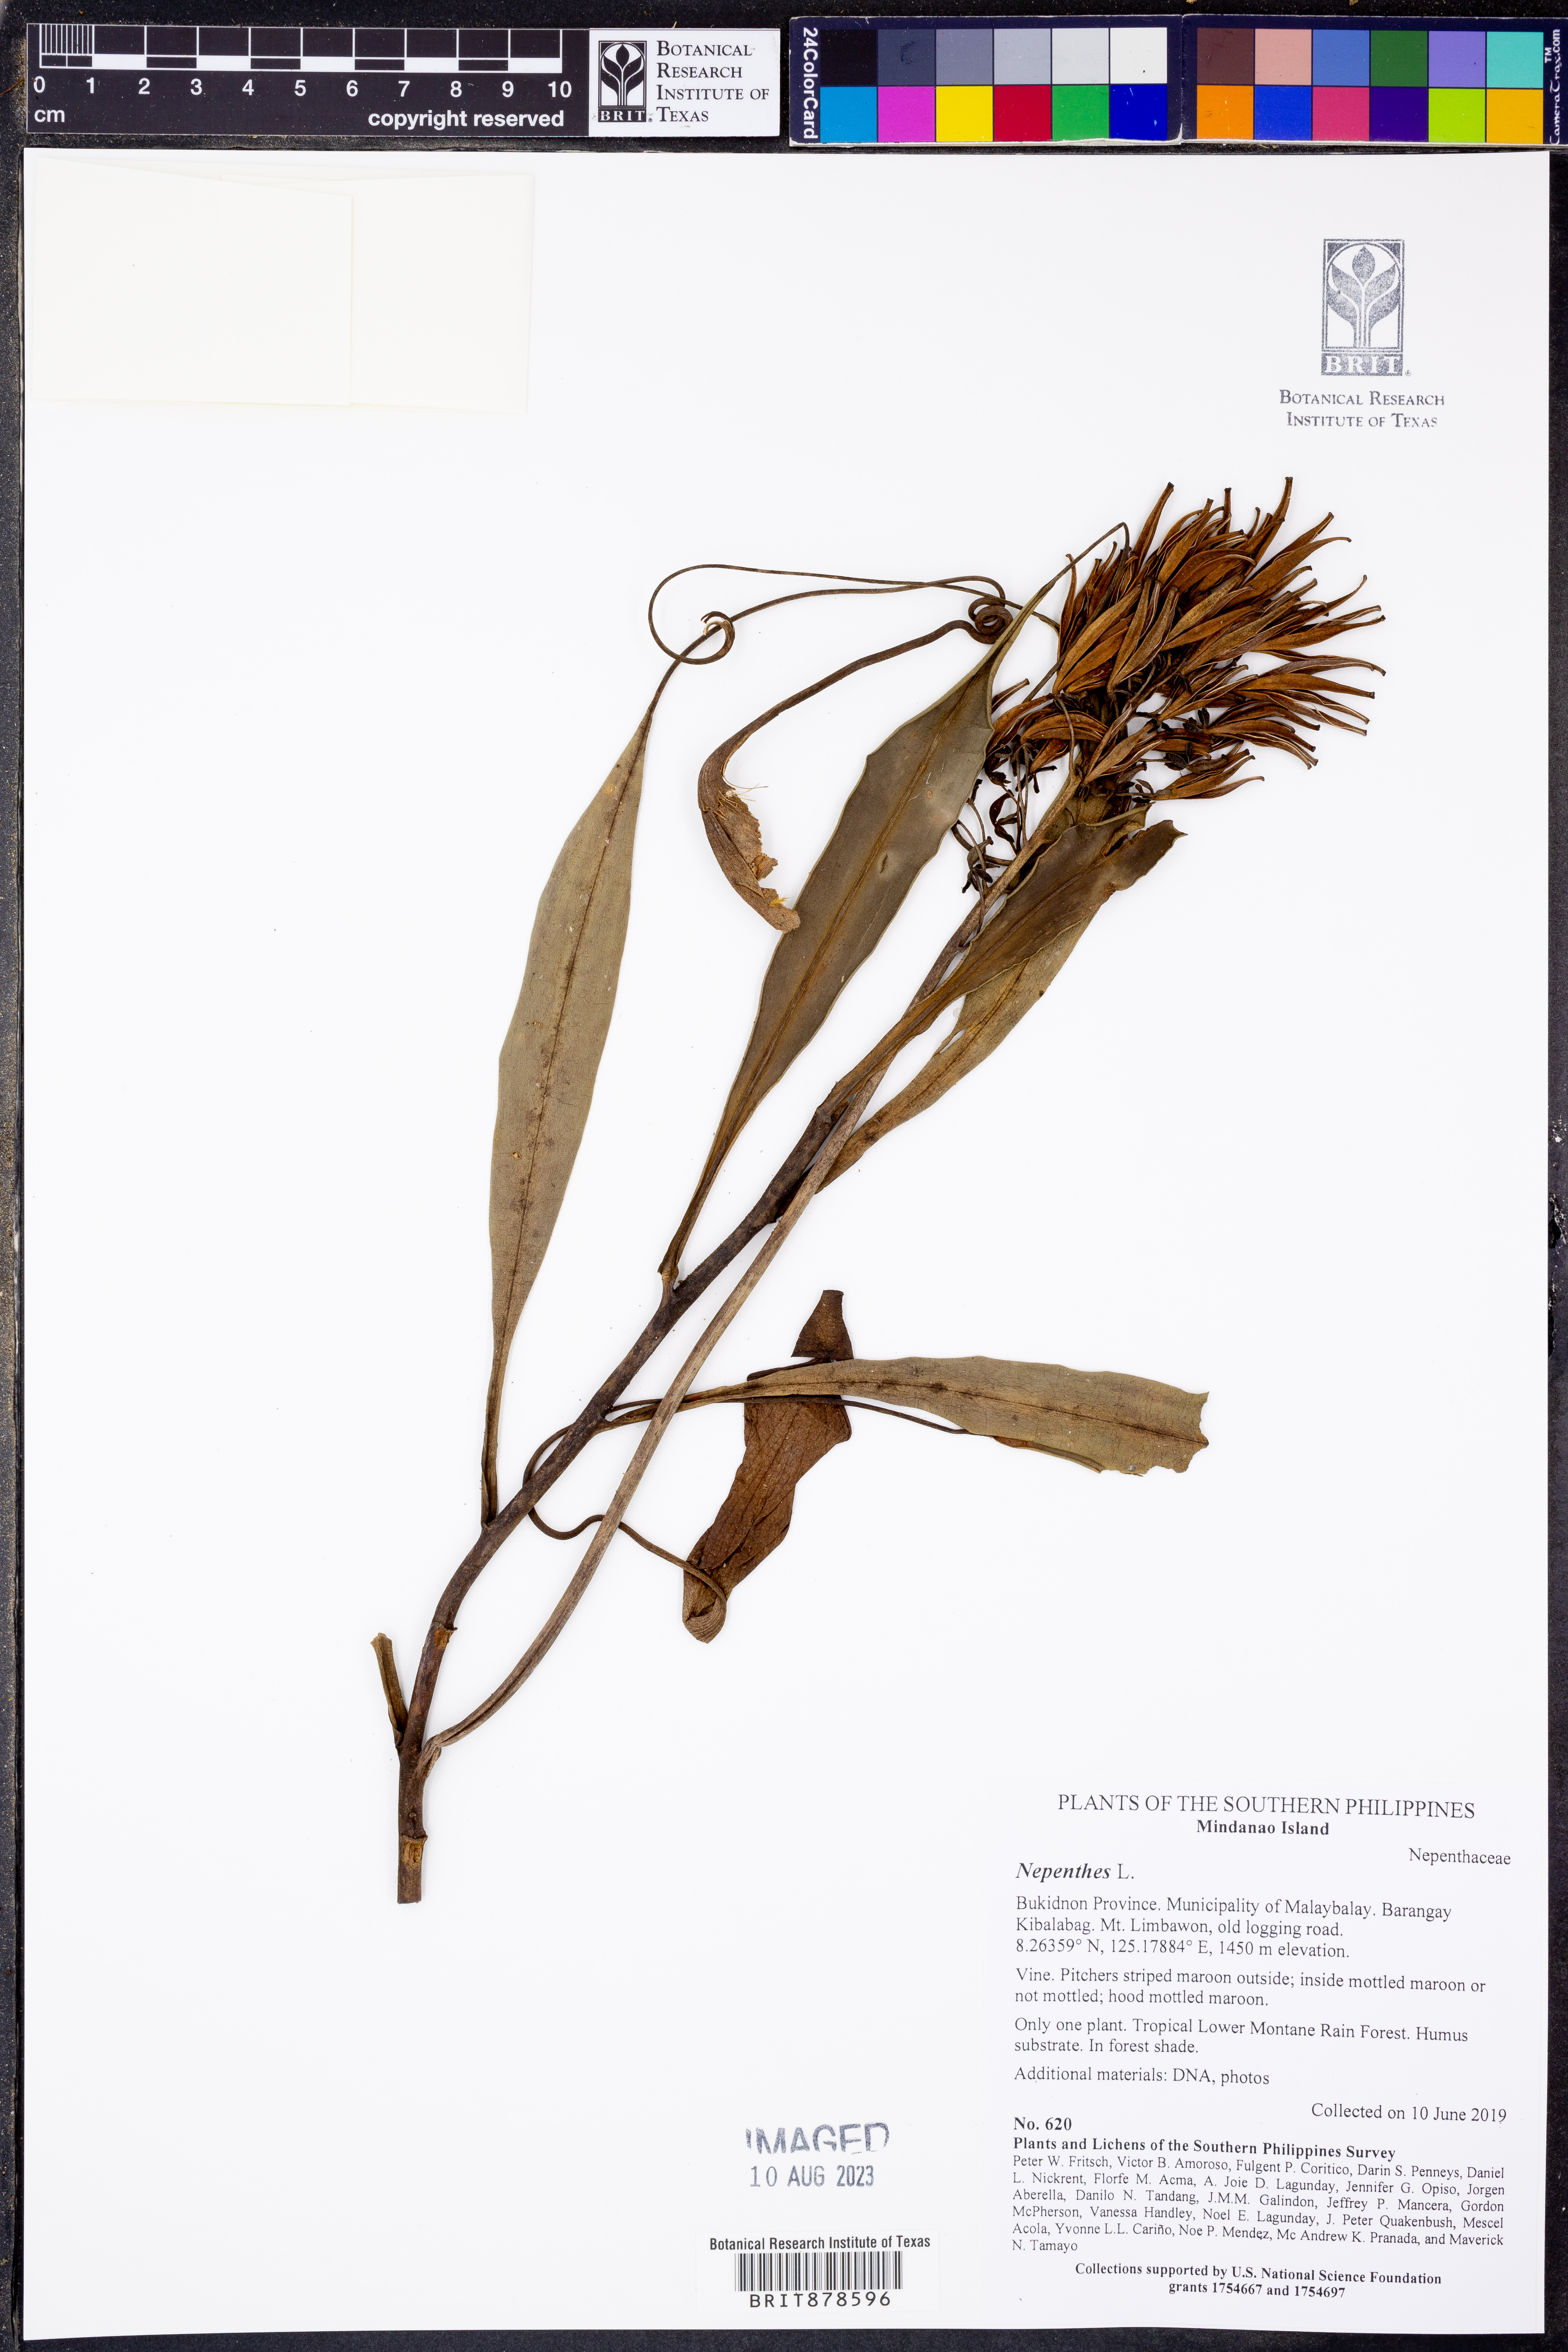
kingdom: Plantae
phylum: Tracheophyta
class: Magnoliopsida
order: Caryophyllales
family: Nepenthaceae
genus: Nepenthes
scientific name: Nepenthes
